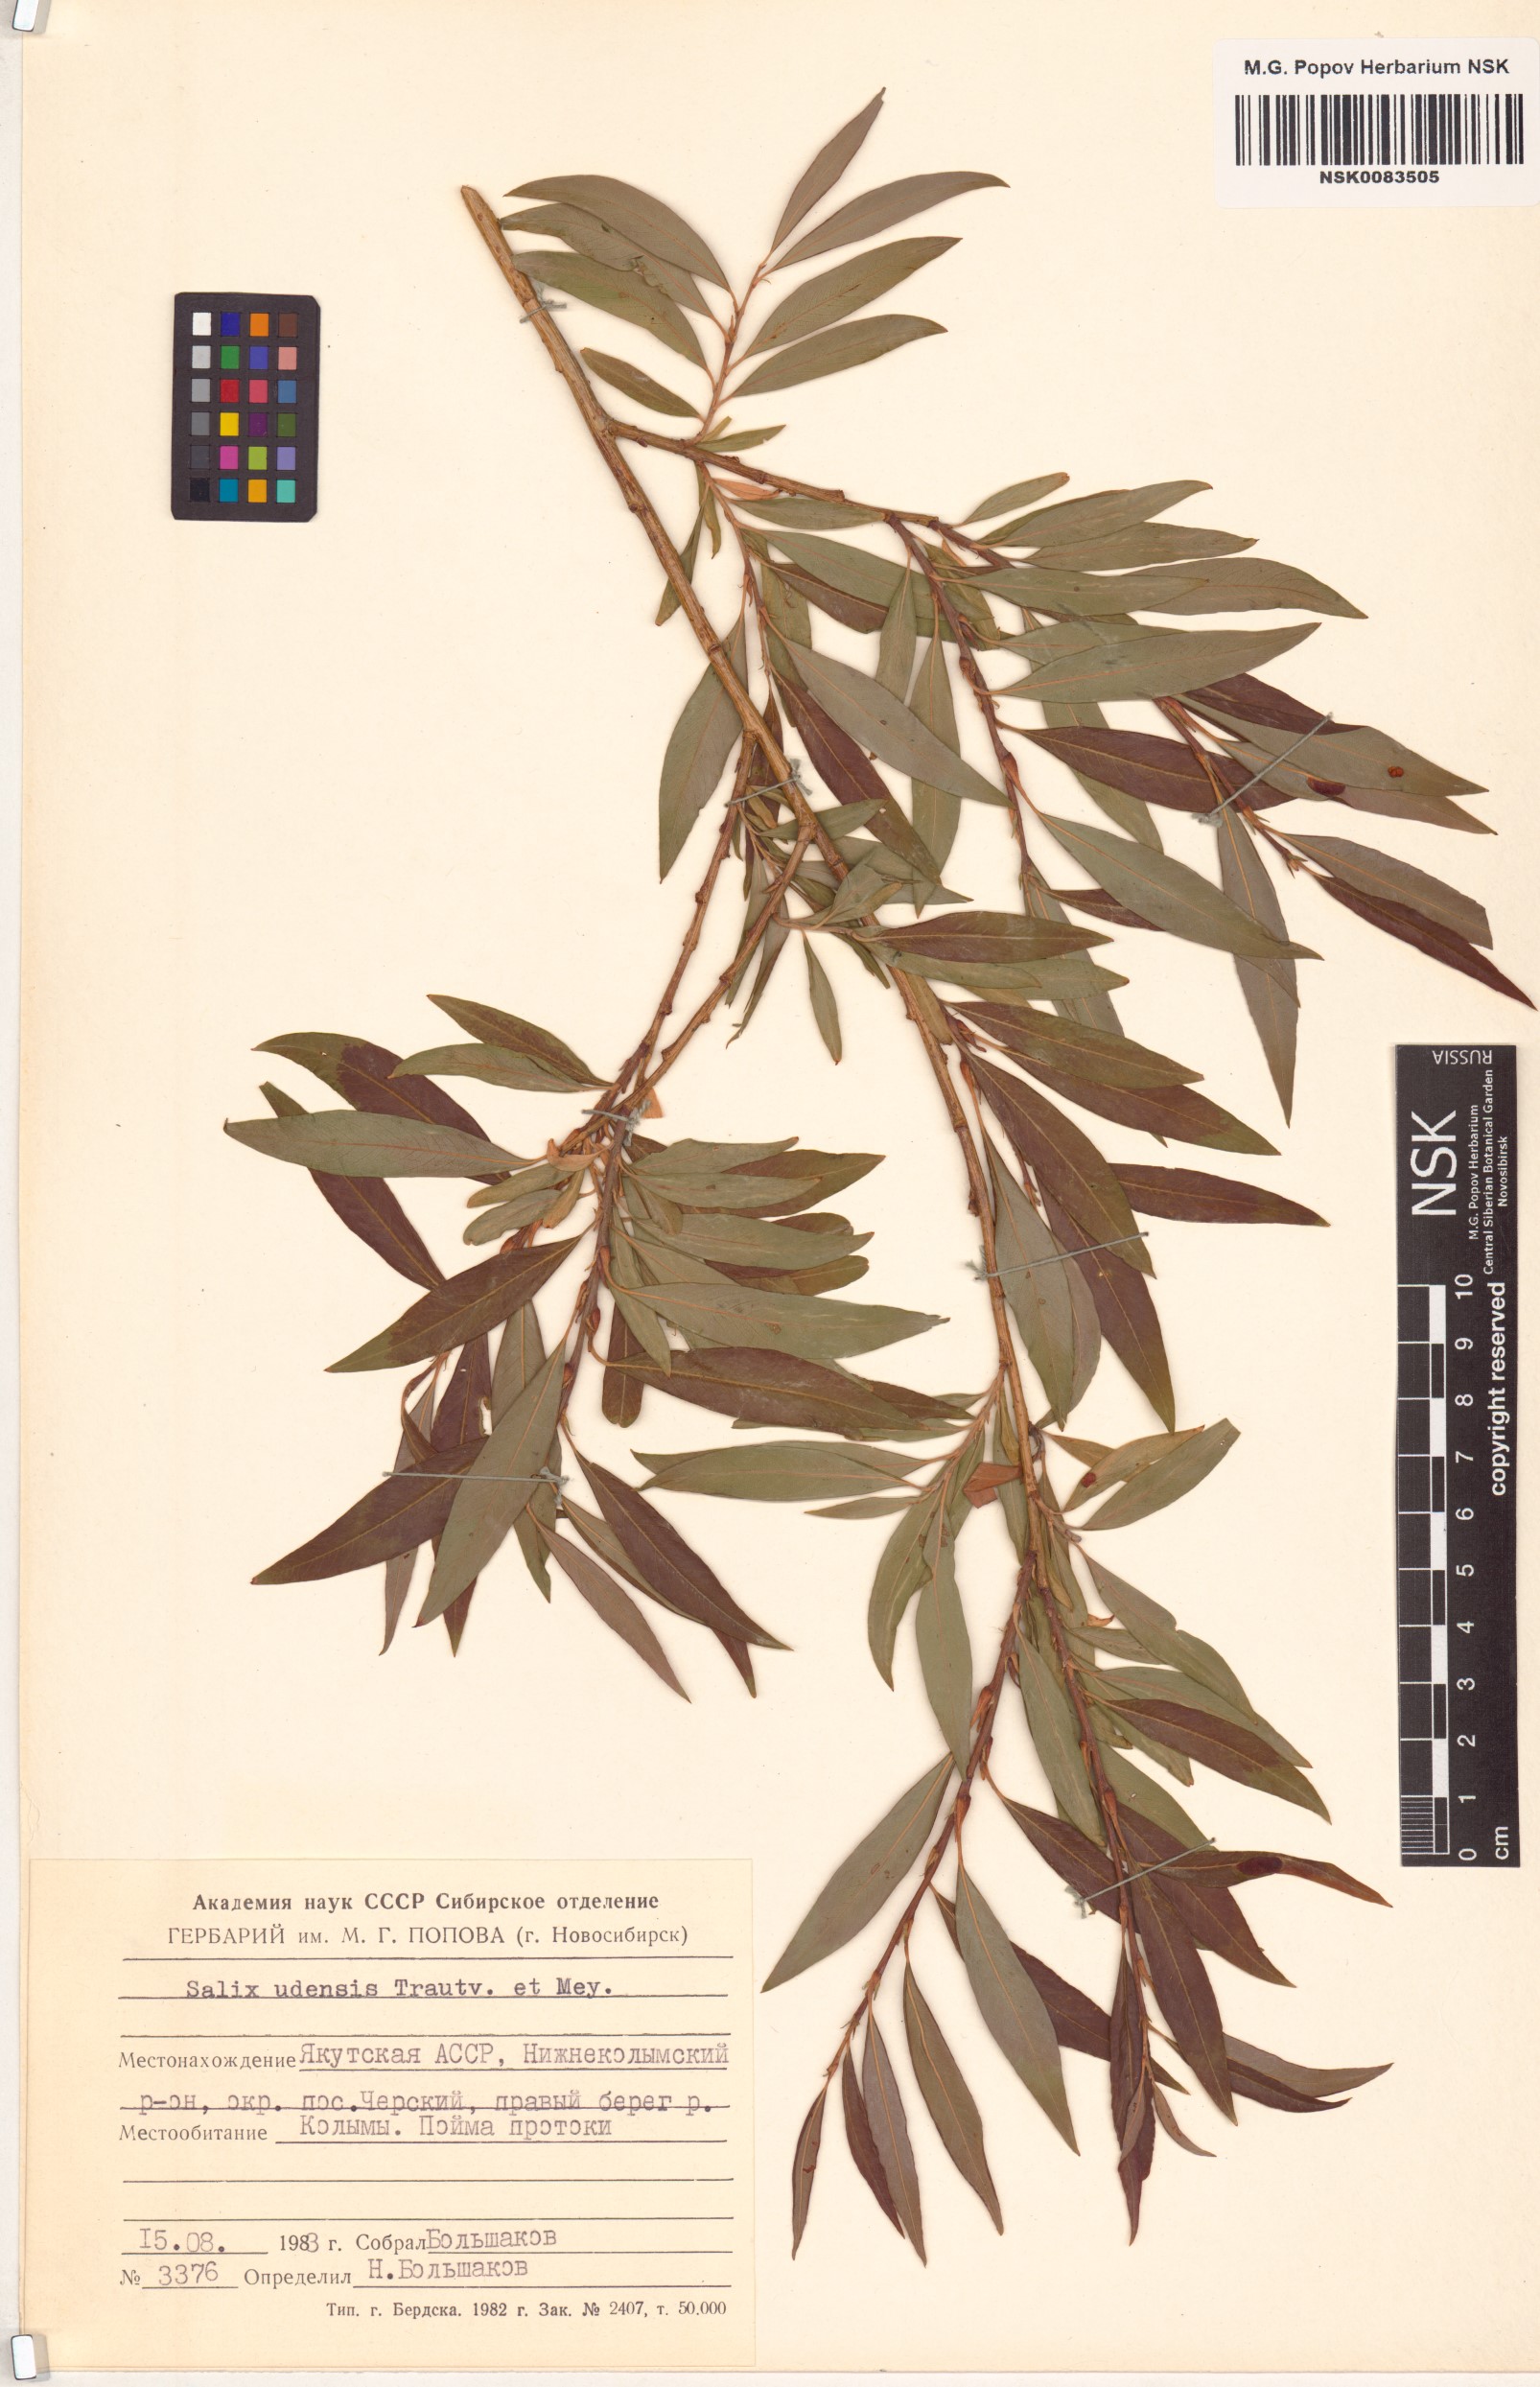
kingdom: Plantae
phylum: Tracheophyta
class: Magnoliopsida
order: Malpighiales
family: Salicaceae
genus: Salix
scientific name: Salix udensis
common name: Sachalin willow
